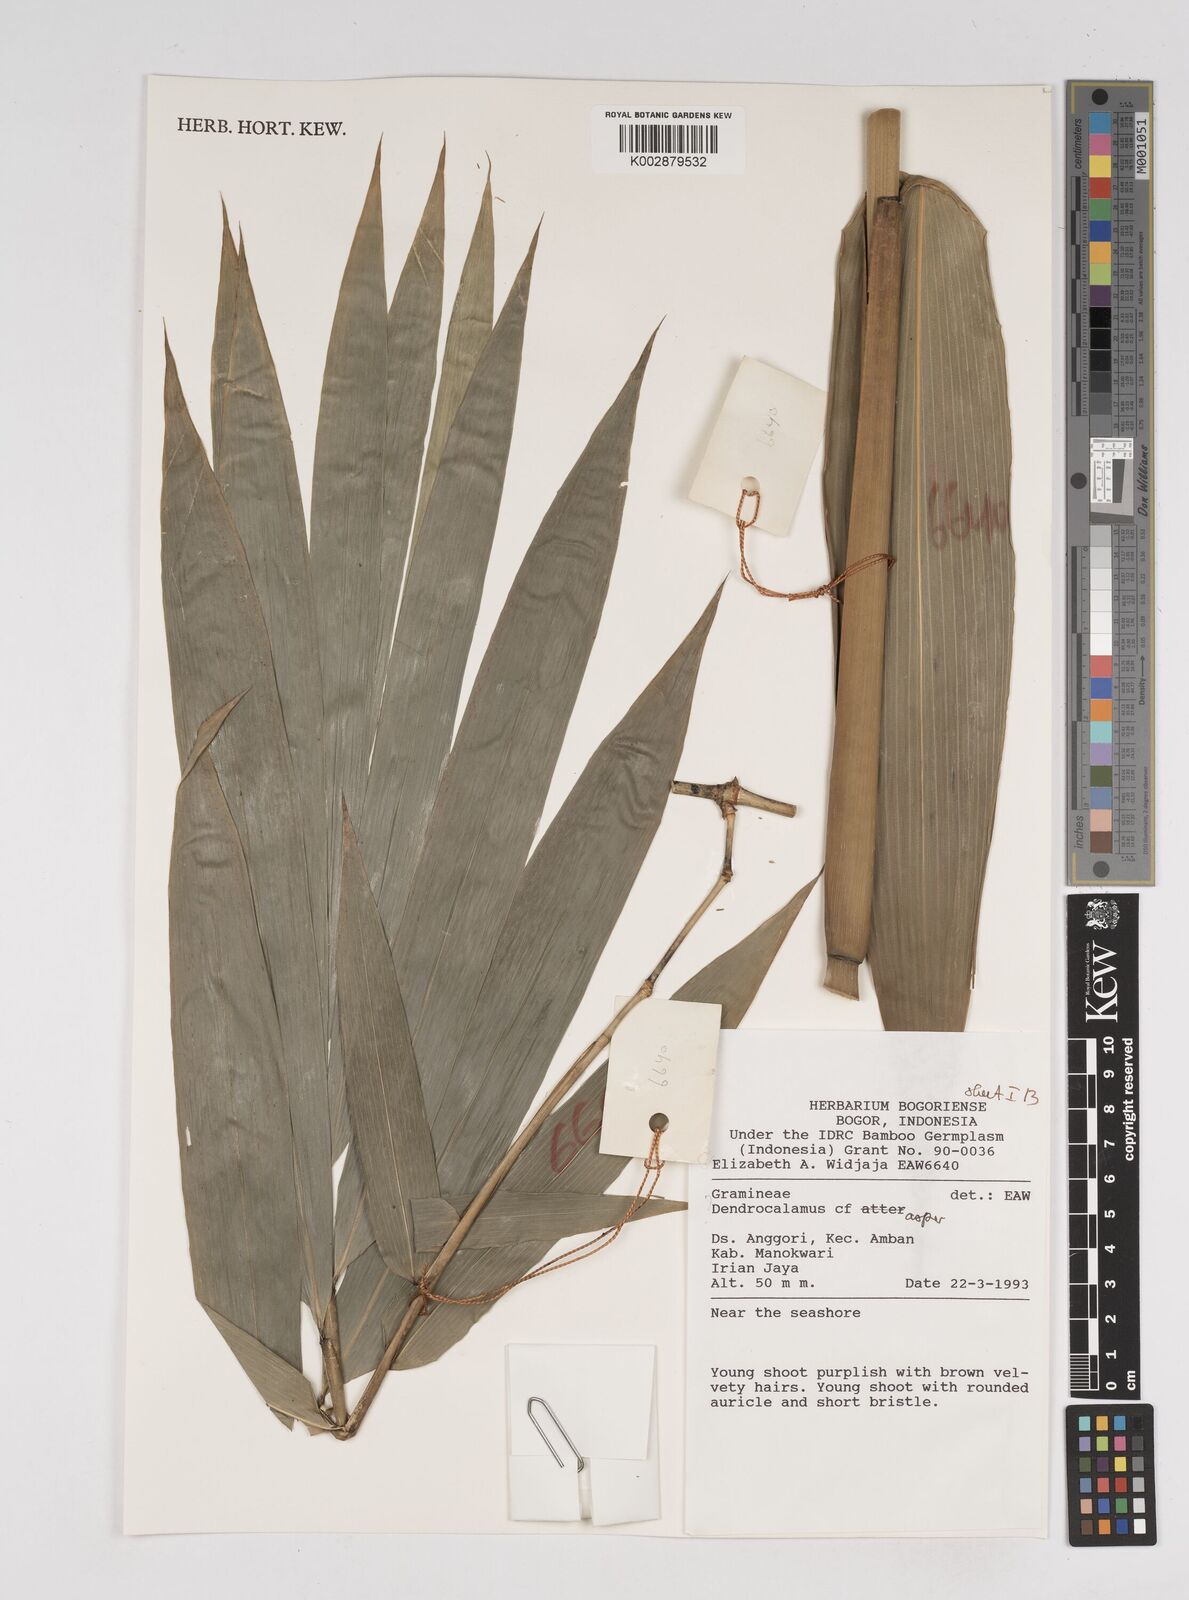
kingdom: Plantae
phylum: Tracheophyta
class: Liliopsida
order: Poales
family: Poaceae
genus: Dendrocalamus
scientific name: Dendrocalamus
